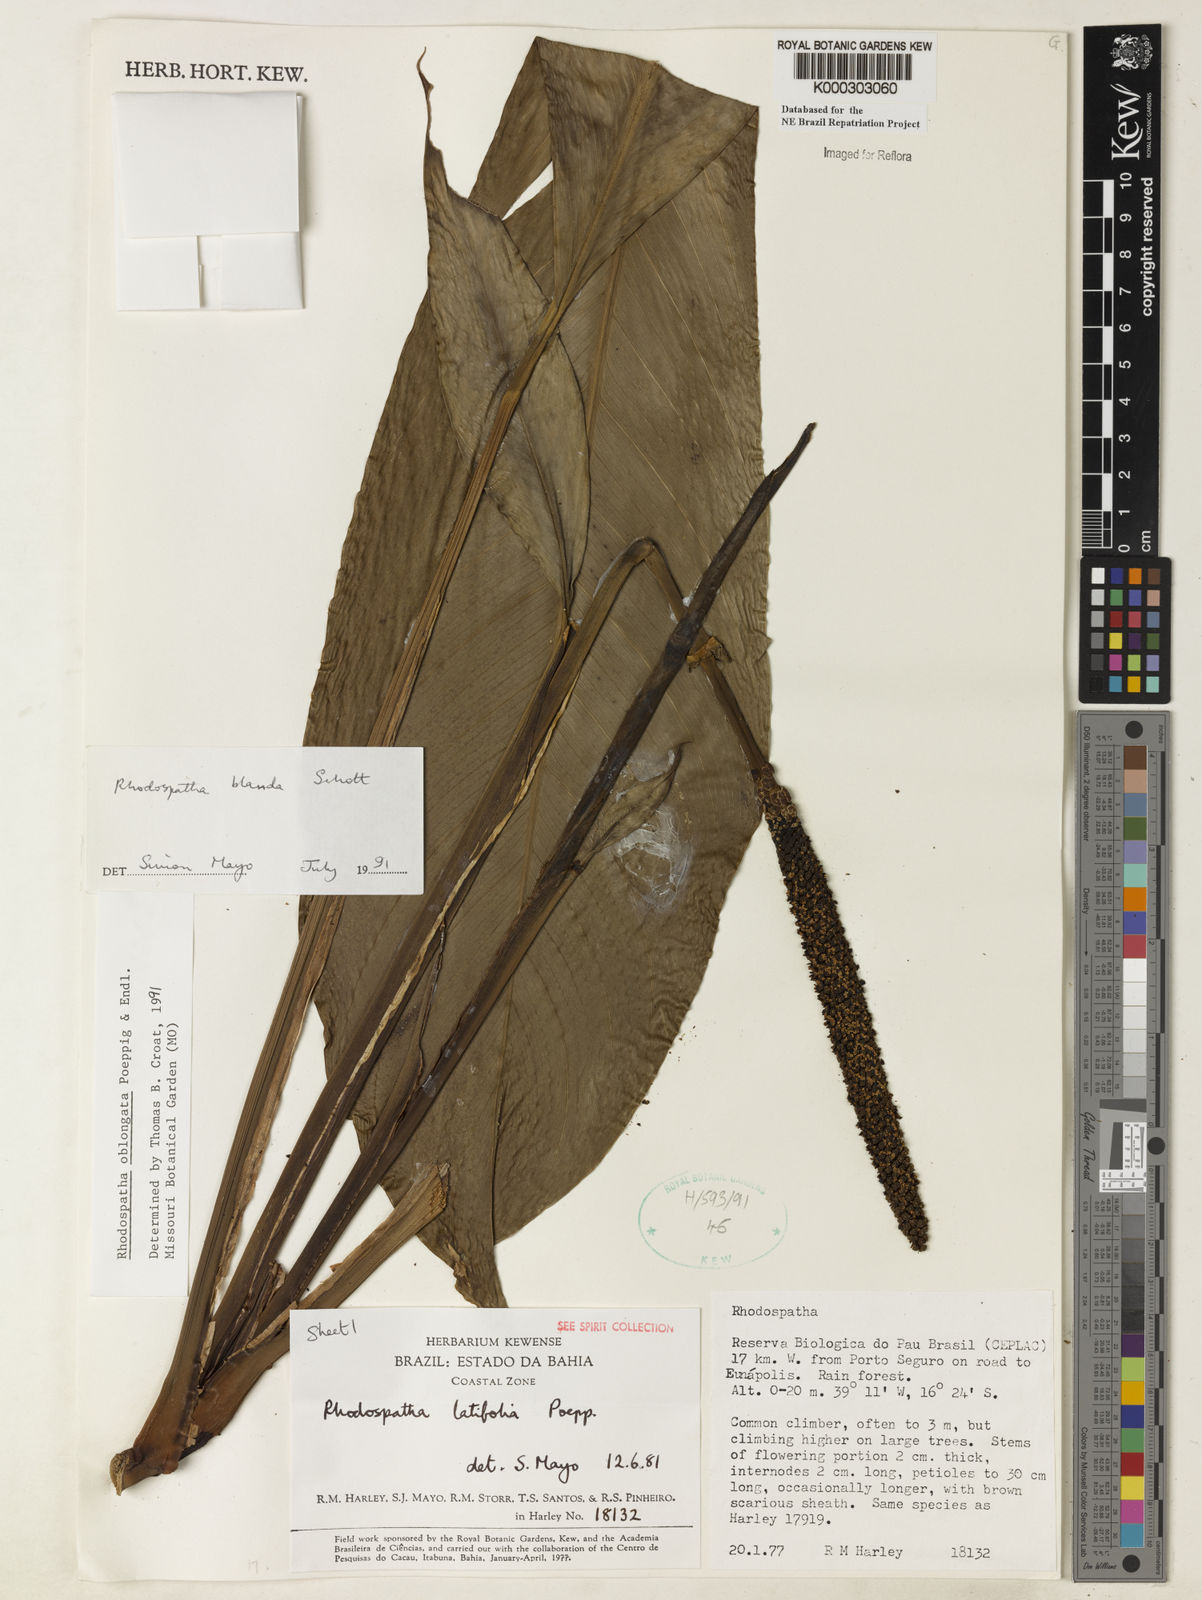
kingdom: Plantae
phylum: Tracheophyta
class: Liliopsida
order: Alismatales
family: Araceae
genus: Rhodospatha
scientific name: Rhodospatha oblongata
